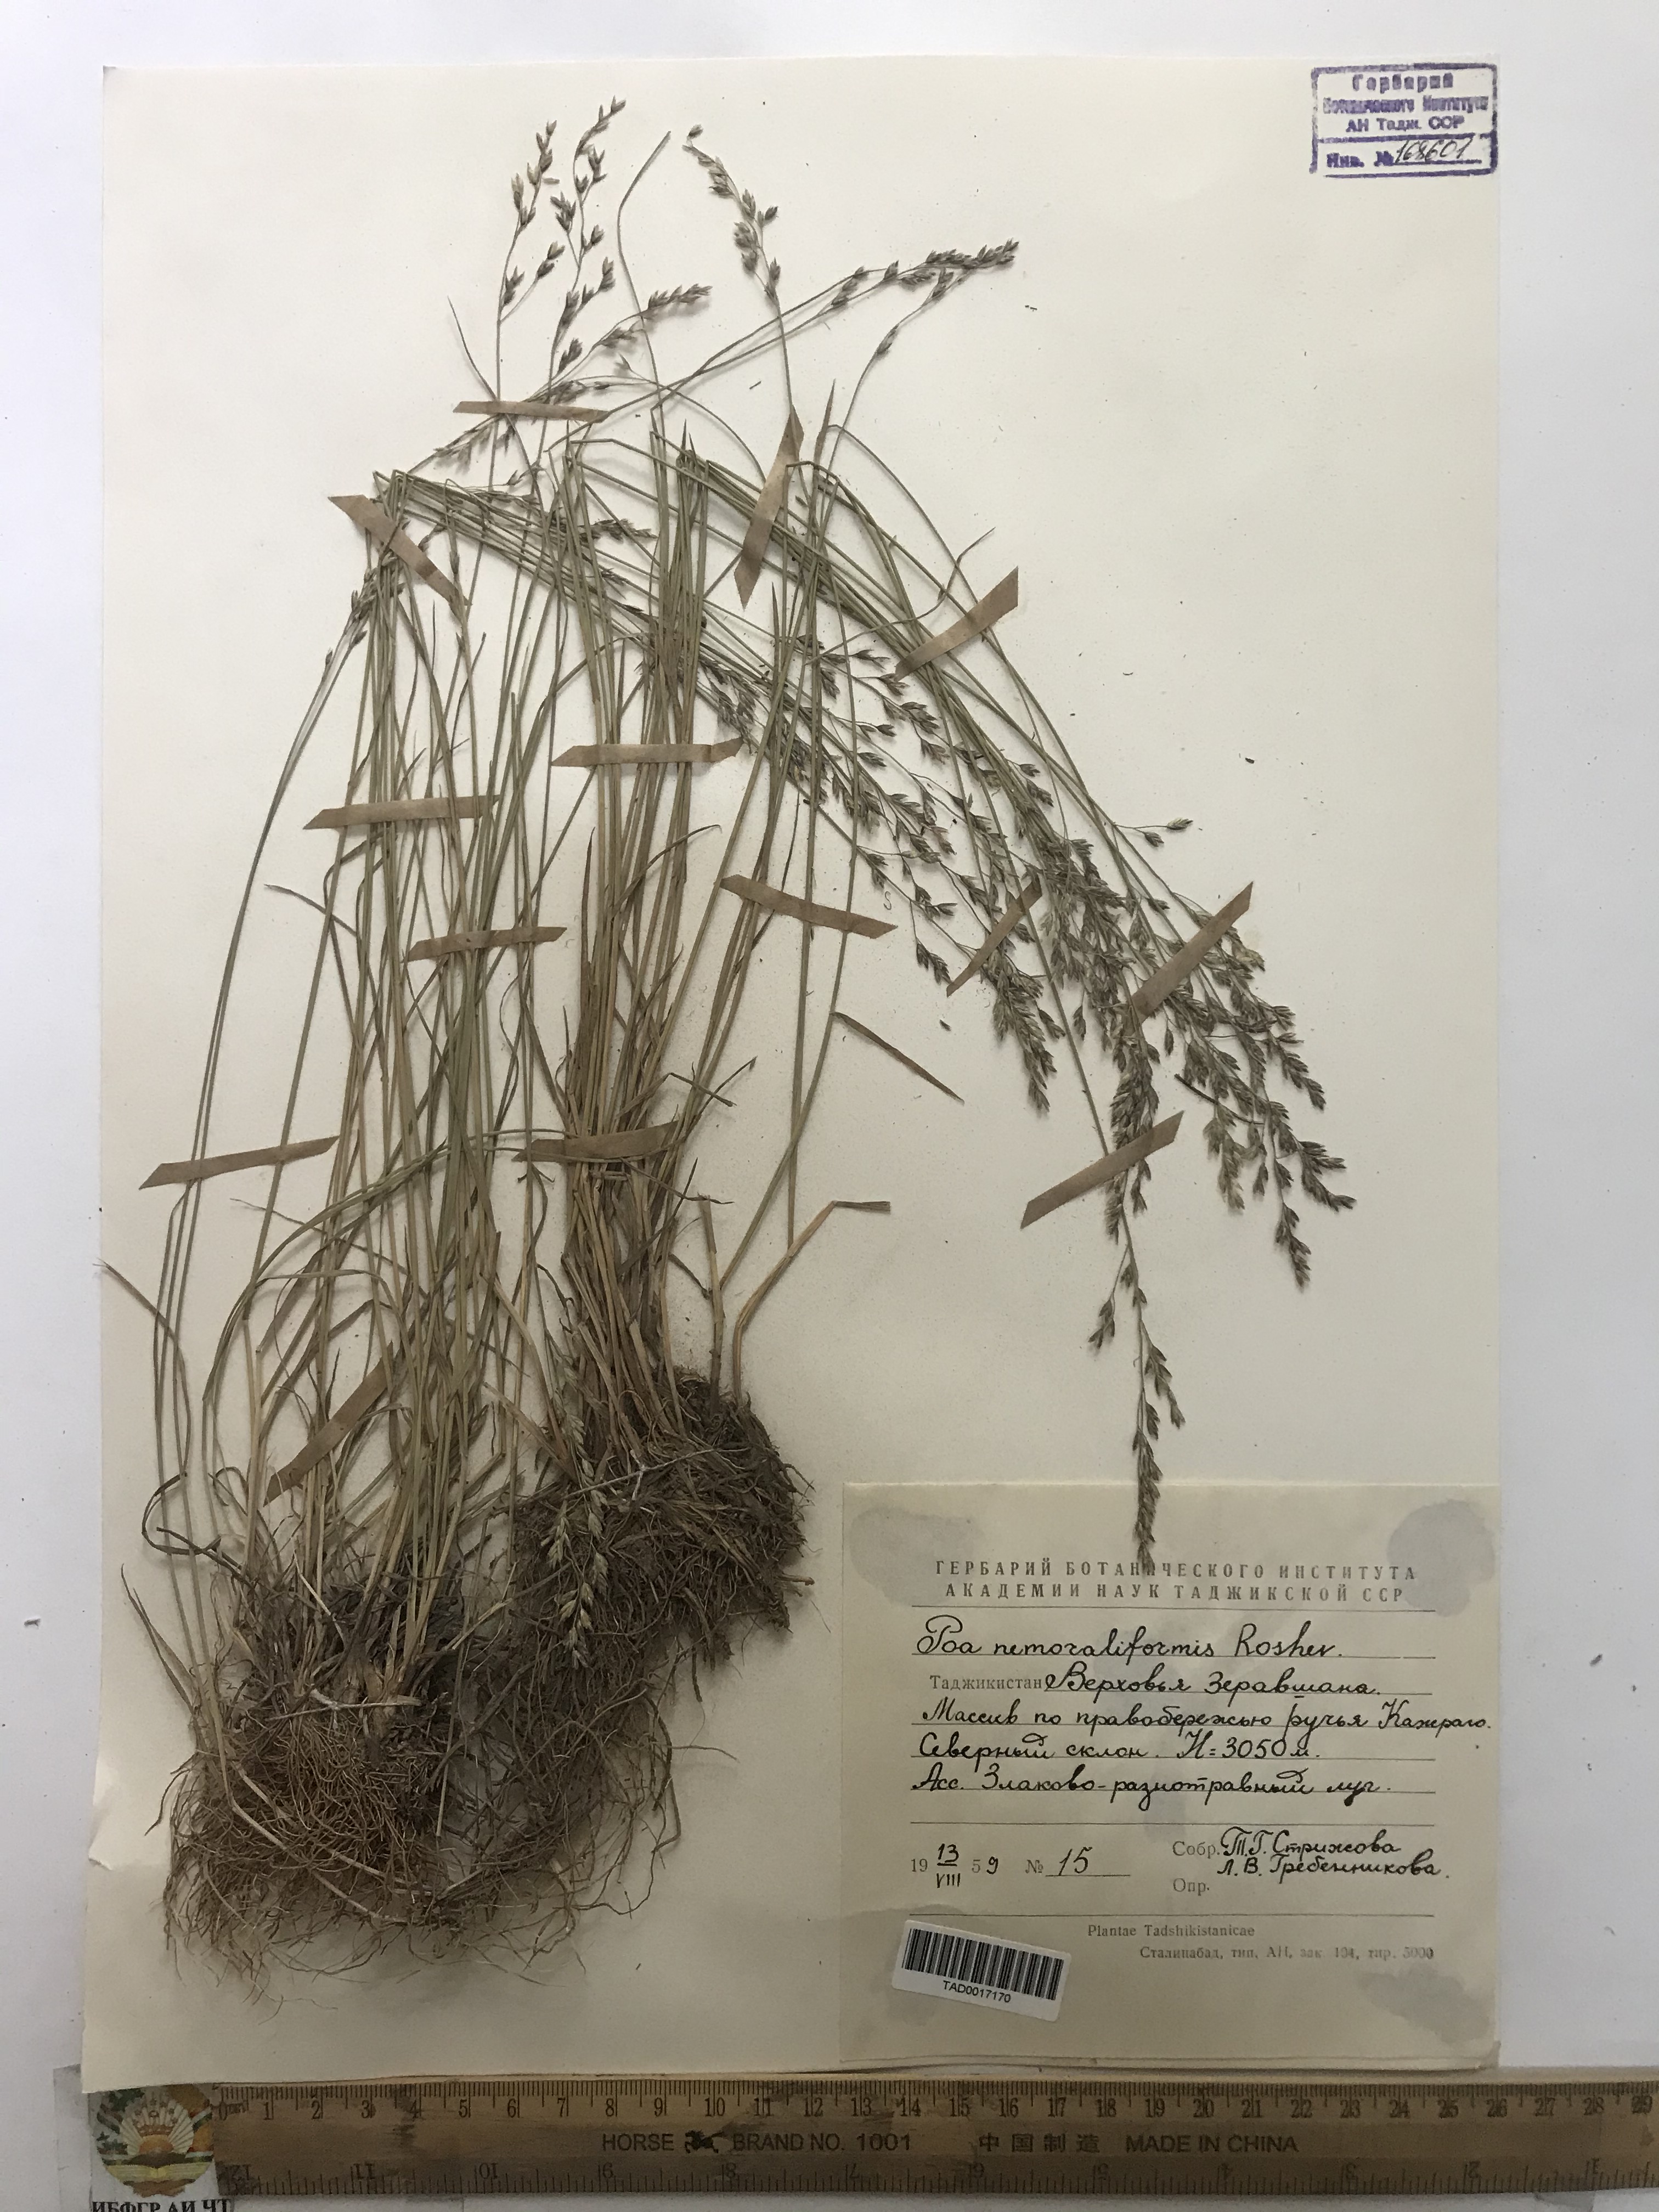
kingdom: Plantae
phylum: Tracheophyta
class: Liliopsida
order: Poales
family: Poaceae
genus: Poa
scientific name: Poa urssulensis
